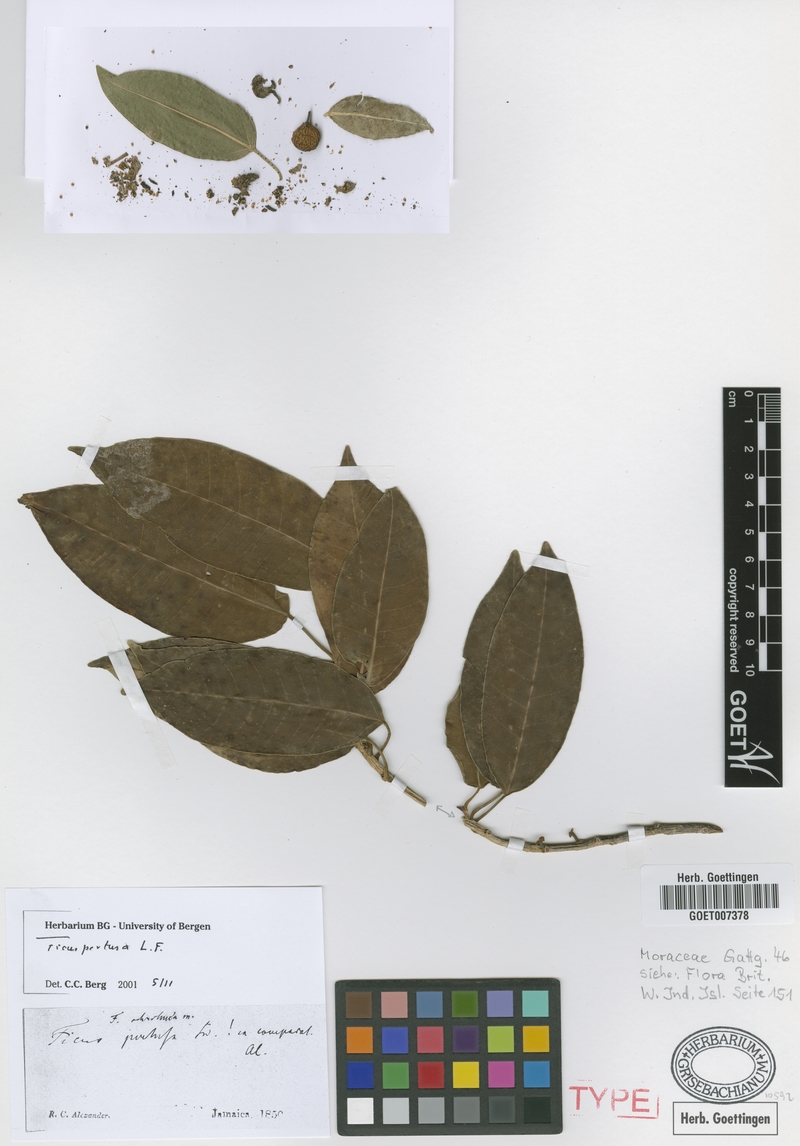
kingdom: Plantae
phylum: Tracheophyta
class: Magnoliopsida
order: Rosales
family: Moraceae
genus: Ficus
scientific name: Ficus pertusa
